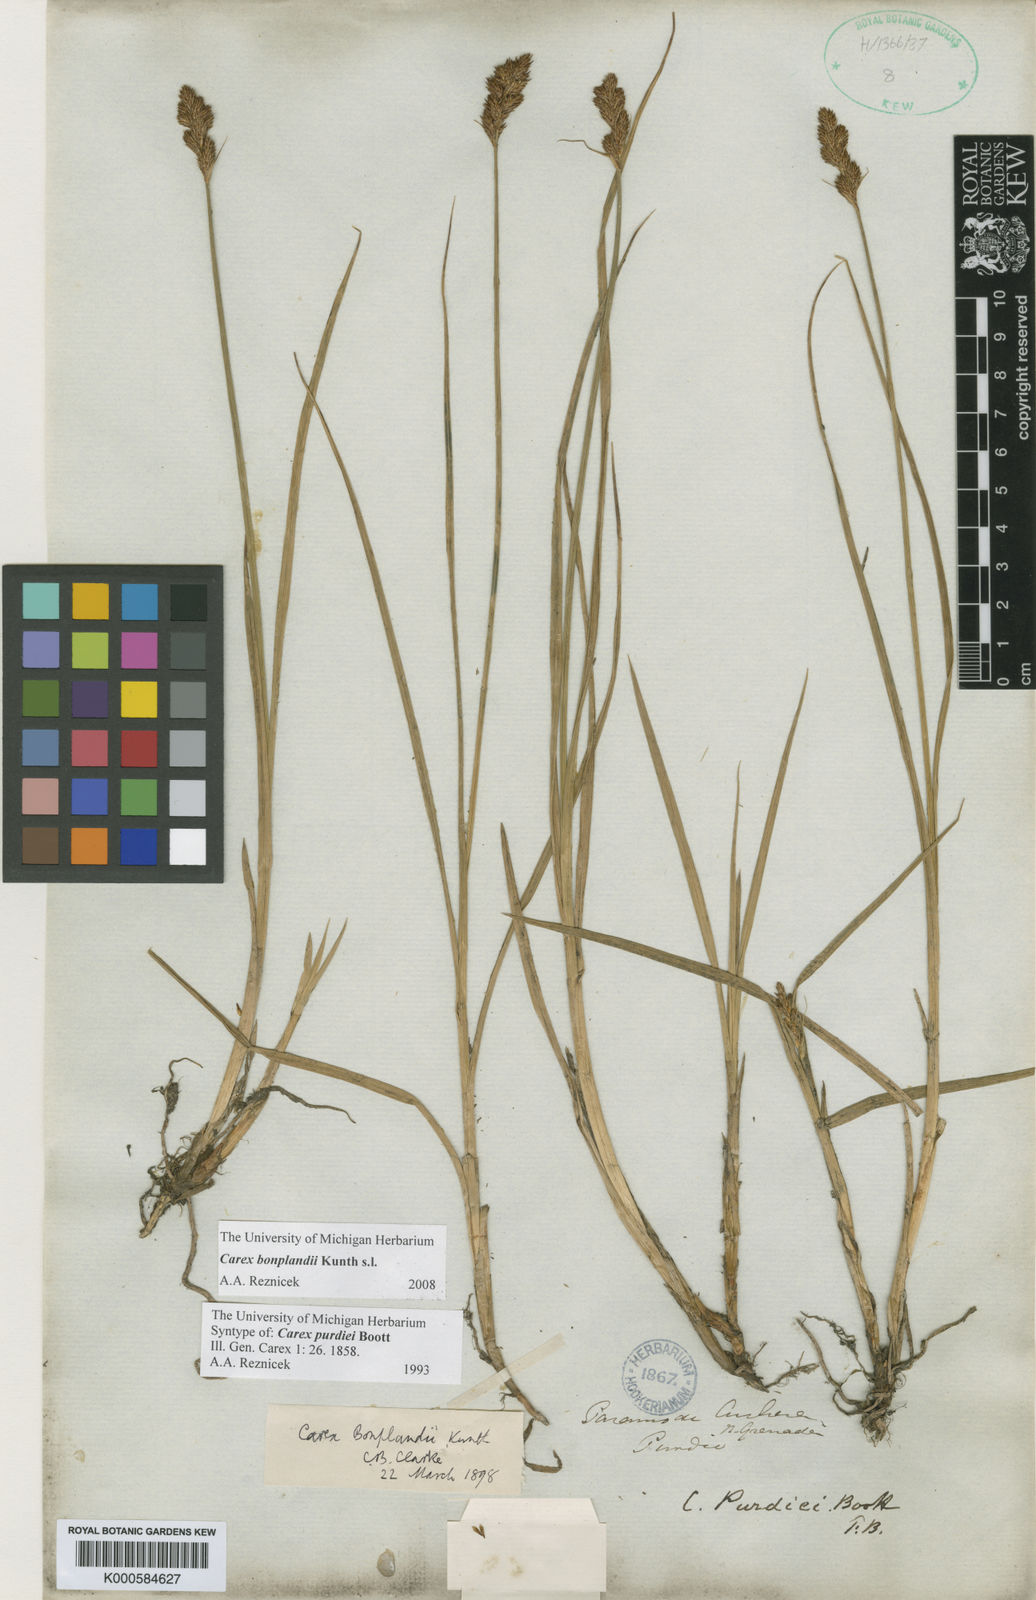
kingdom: Plantae
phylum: Tracheophyta
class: Liliopsida
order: Poales
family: Cyperaceae
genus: Carex
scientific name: Carex bonplandii
